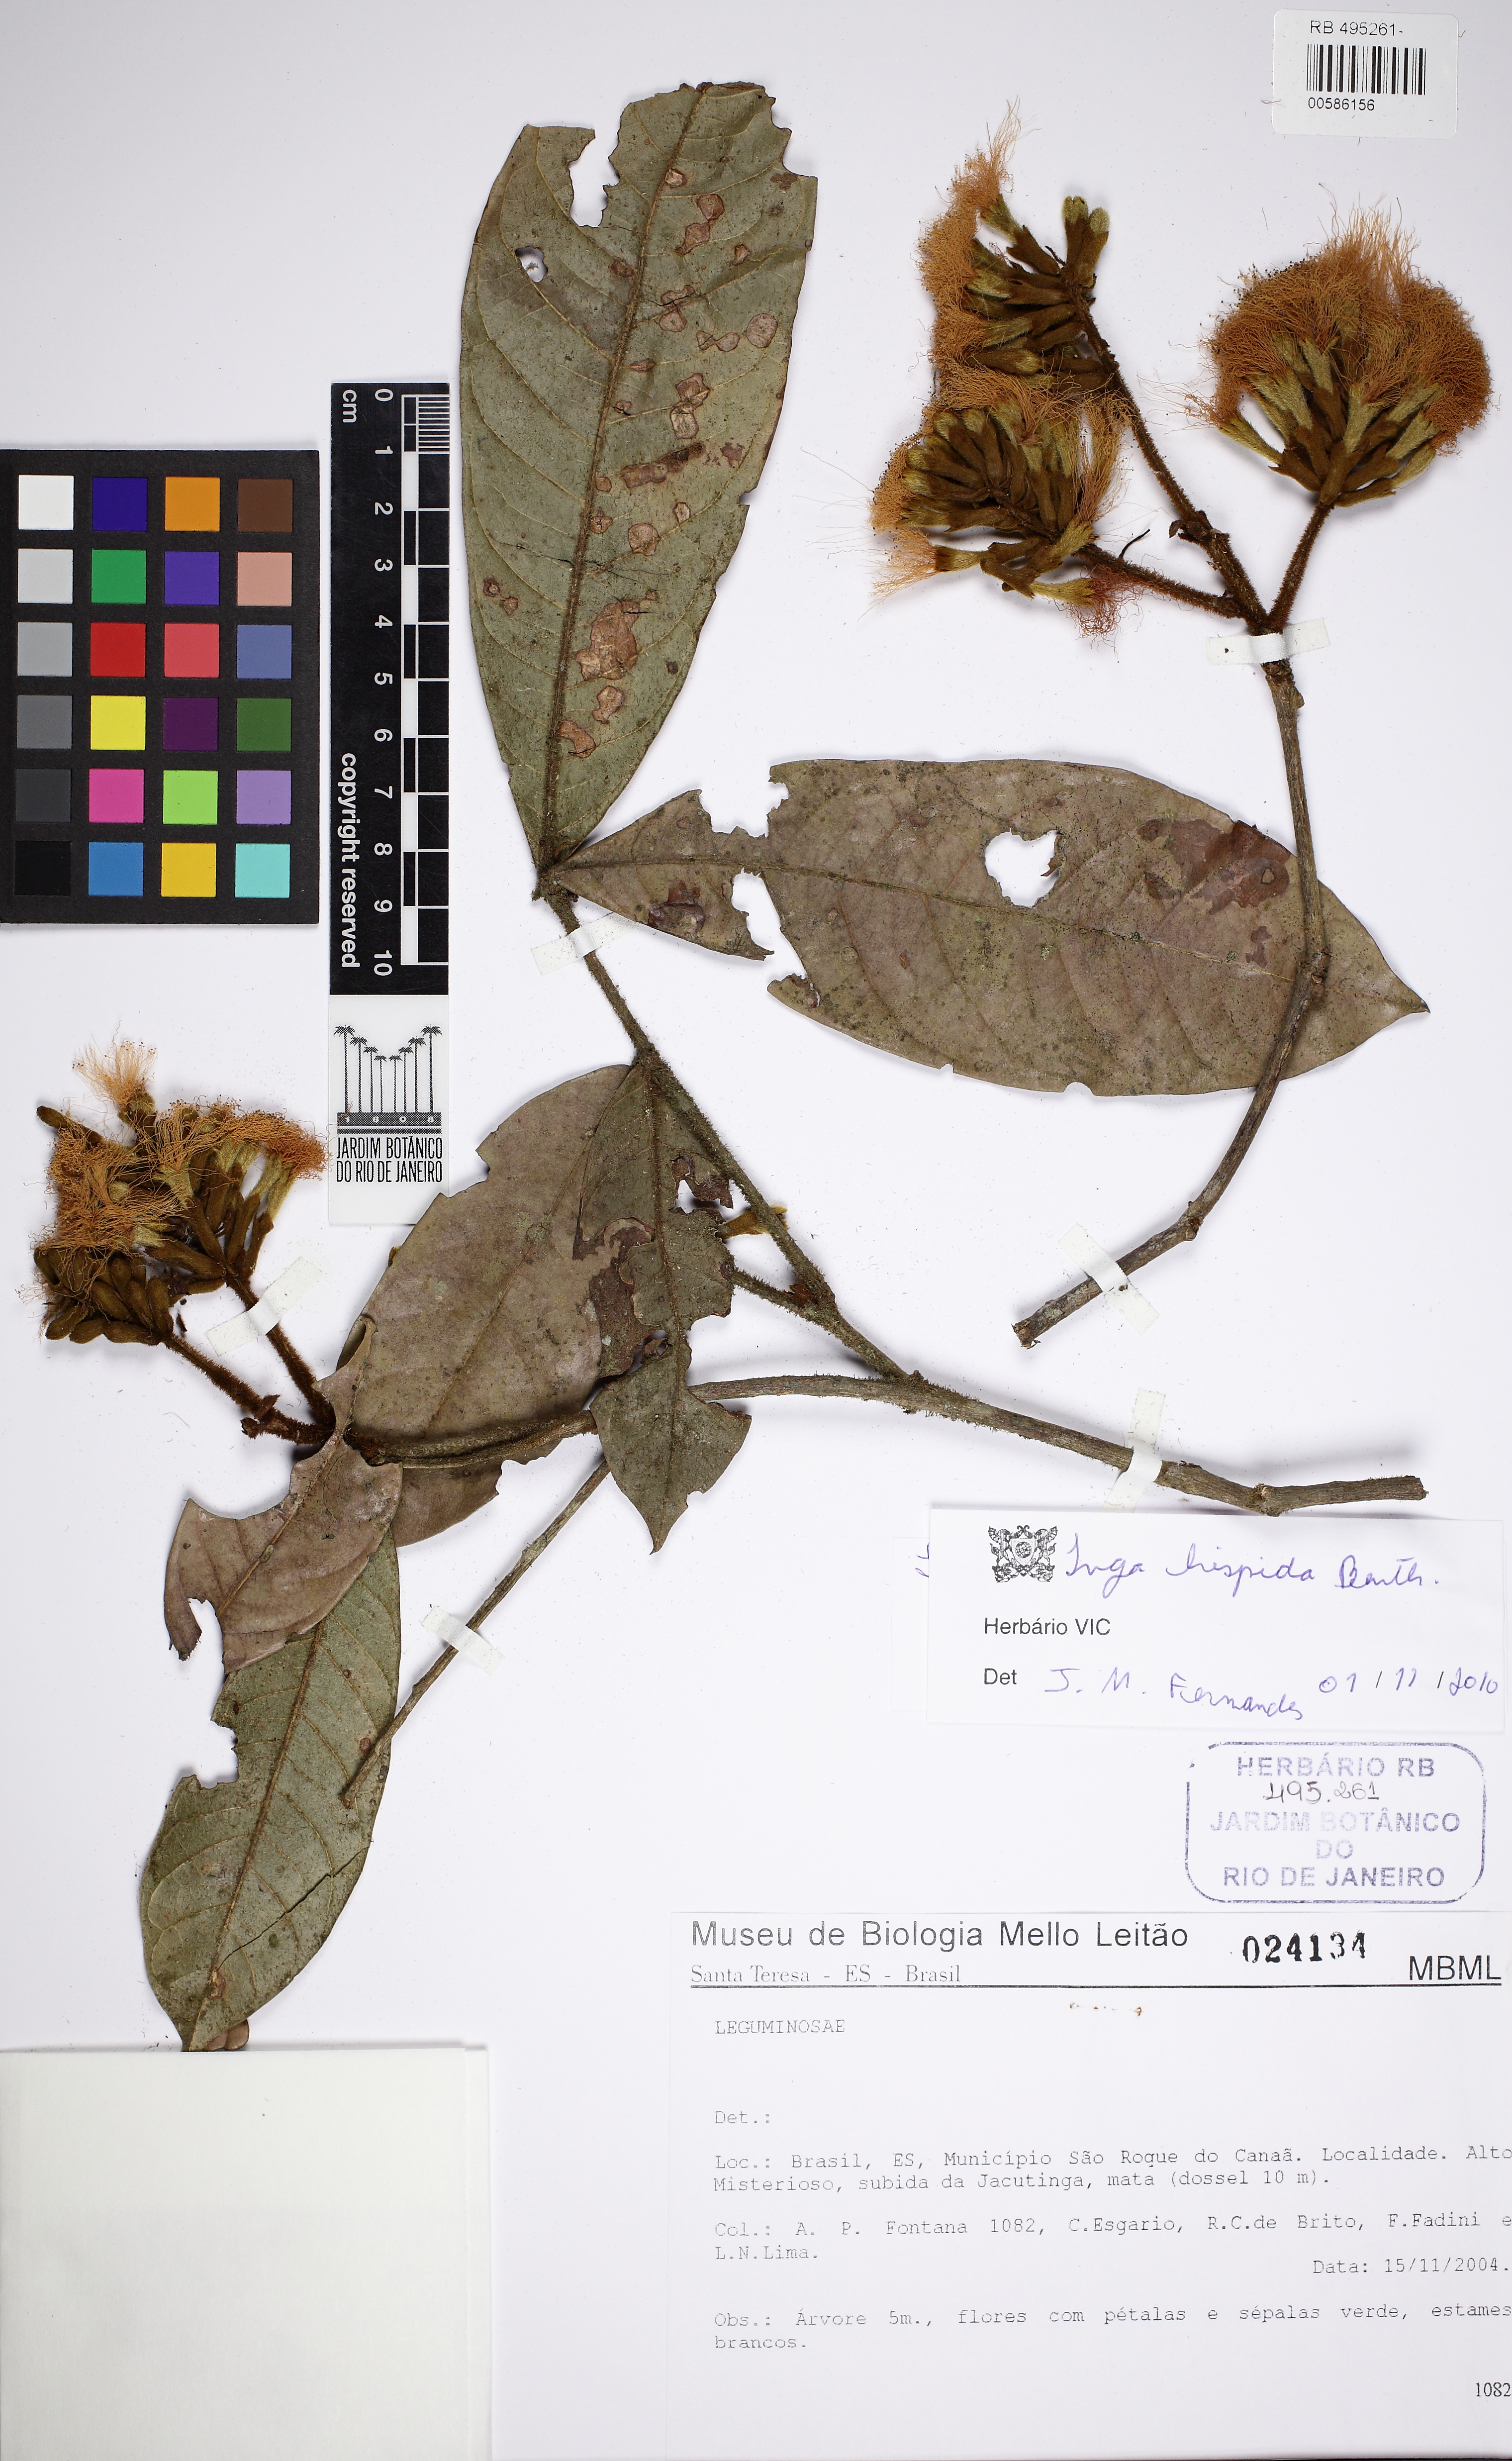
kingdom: Plantae
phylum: Tracheophyta
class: Magnoliopsida
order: Fabales
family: Fabaceae
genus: Inga
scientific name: Inga hispida
